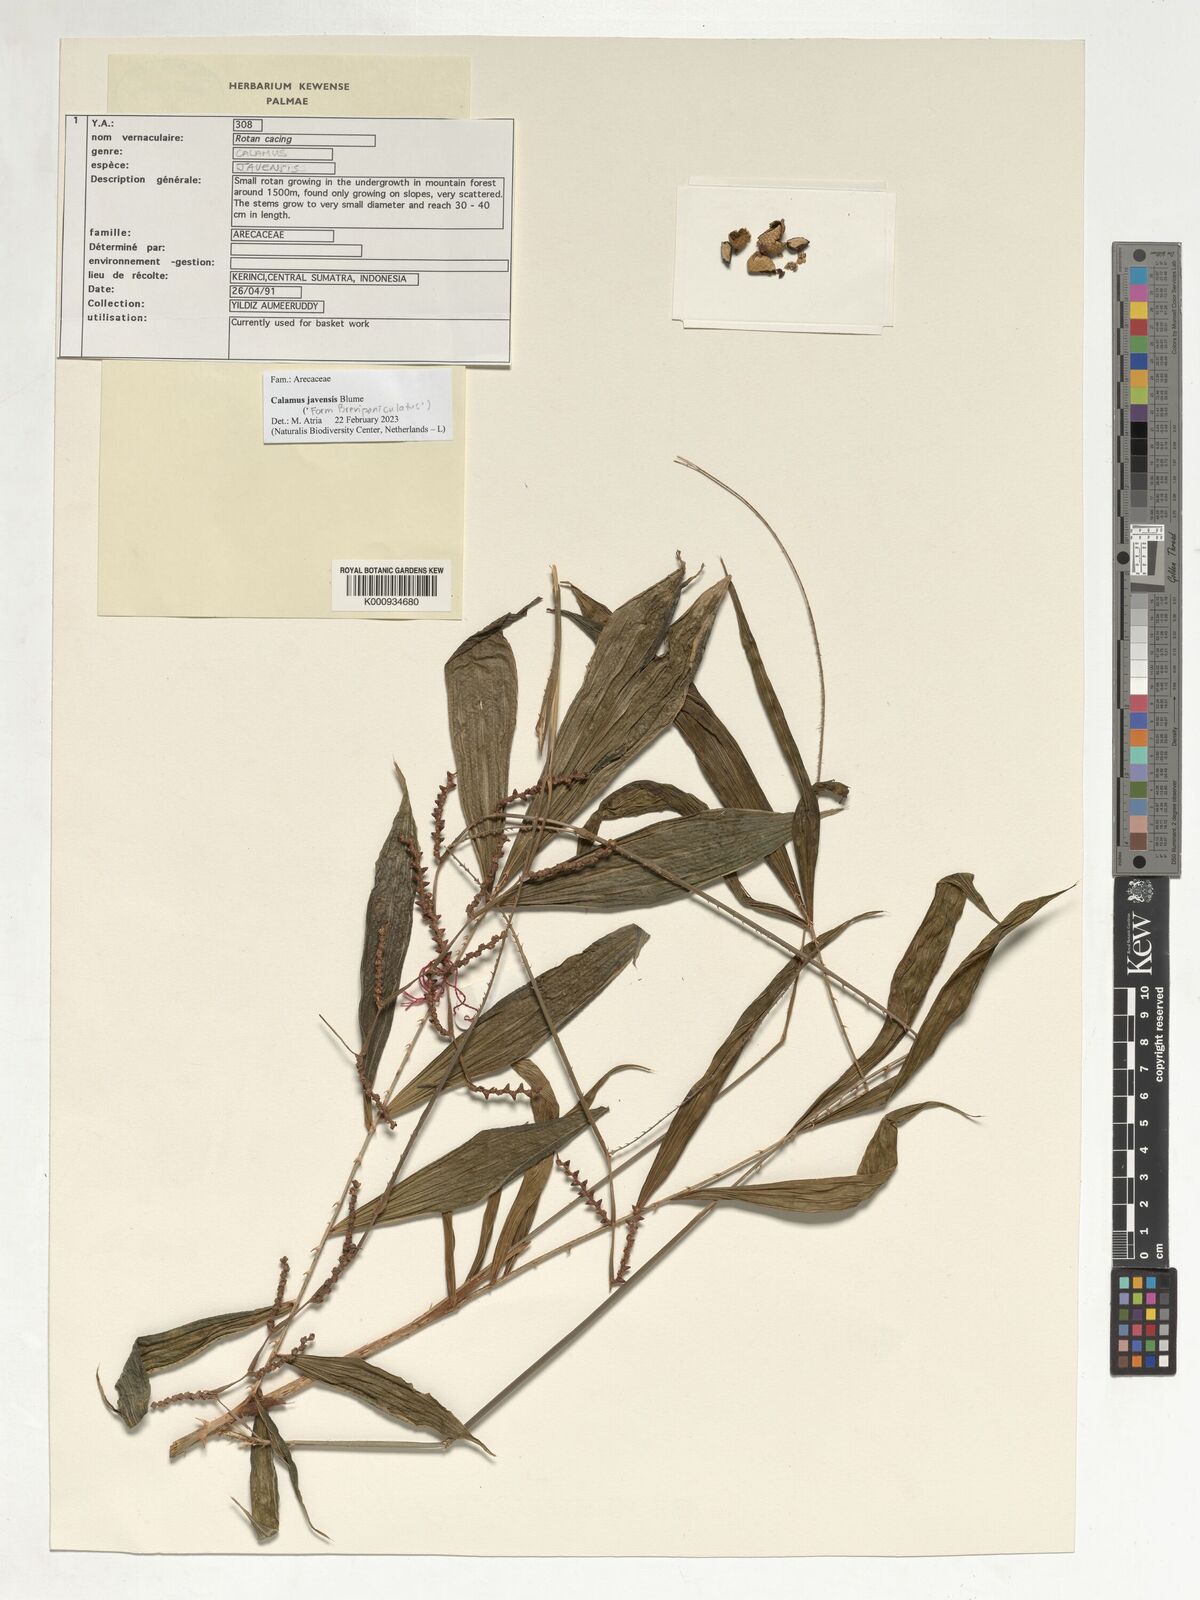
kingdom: Plantae
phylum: Tracheophyta
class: Liliopsida
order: Arecales
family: Arecaceae
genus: Calamus
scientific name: Calamus javensis
